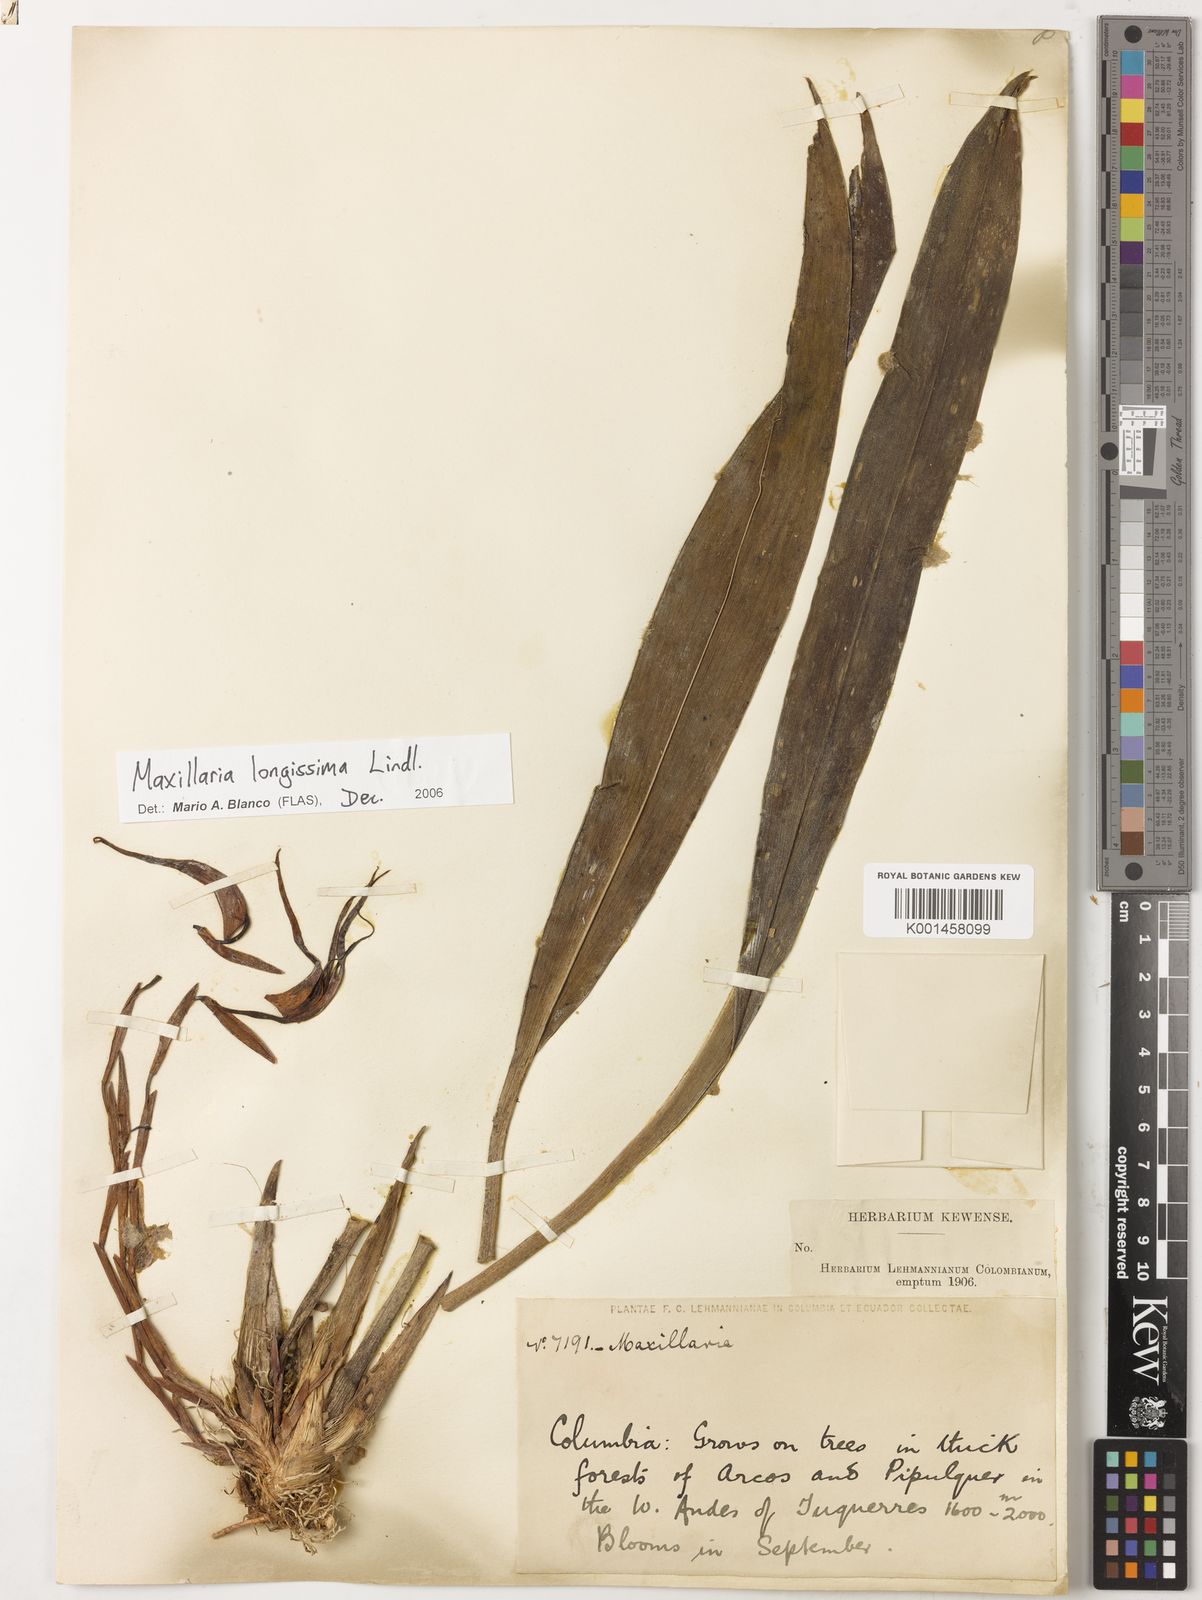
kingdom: Plantae
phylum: Tracheophyta
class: Liliopsida
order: Asparagales
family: Orchidaceae
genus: Maxillaria
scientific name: Maxillaria longissima
